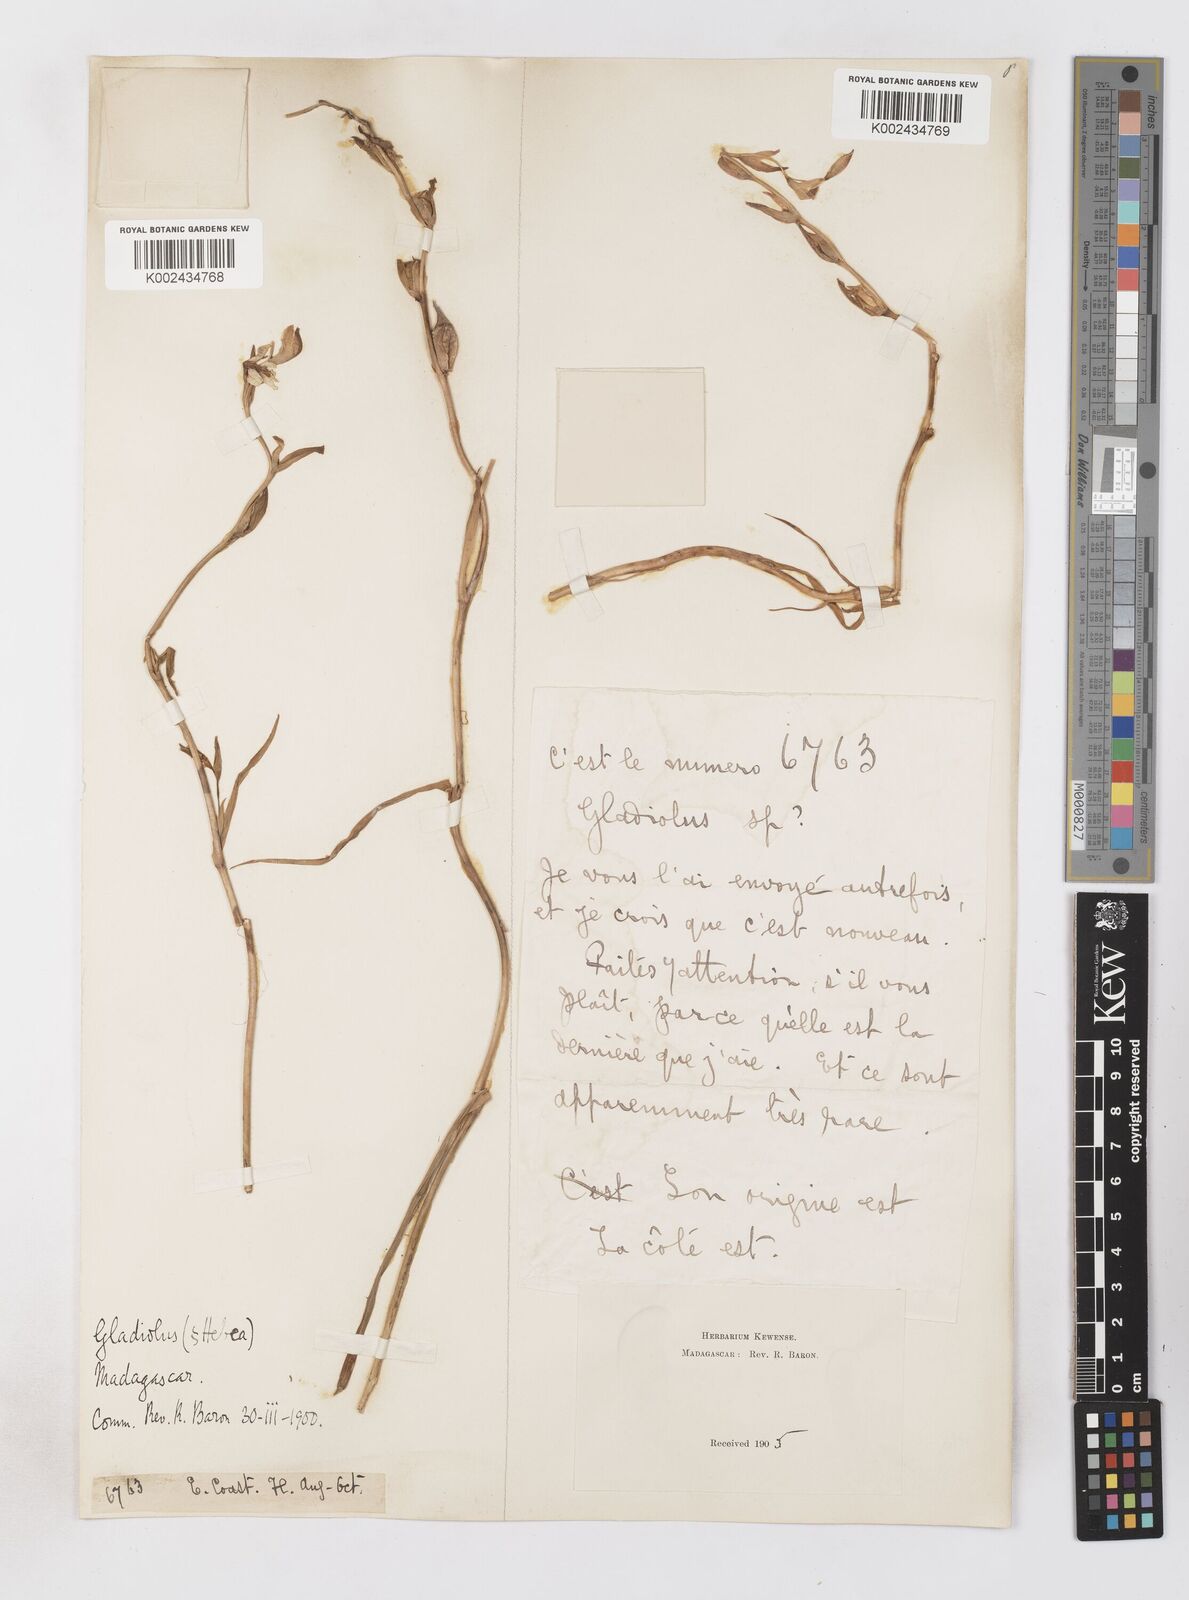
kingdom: Plantae
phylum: Tracheophyta
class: Liliopsida
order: Asparagales
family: Iridaceae
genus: Gladiolus
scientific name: Gladiolus luteus
